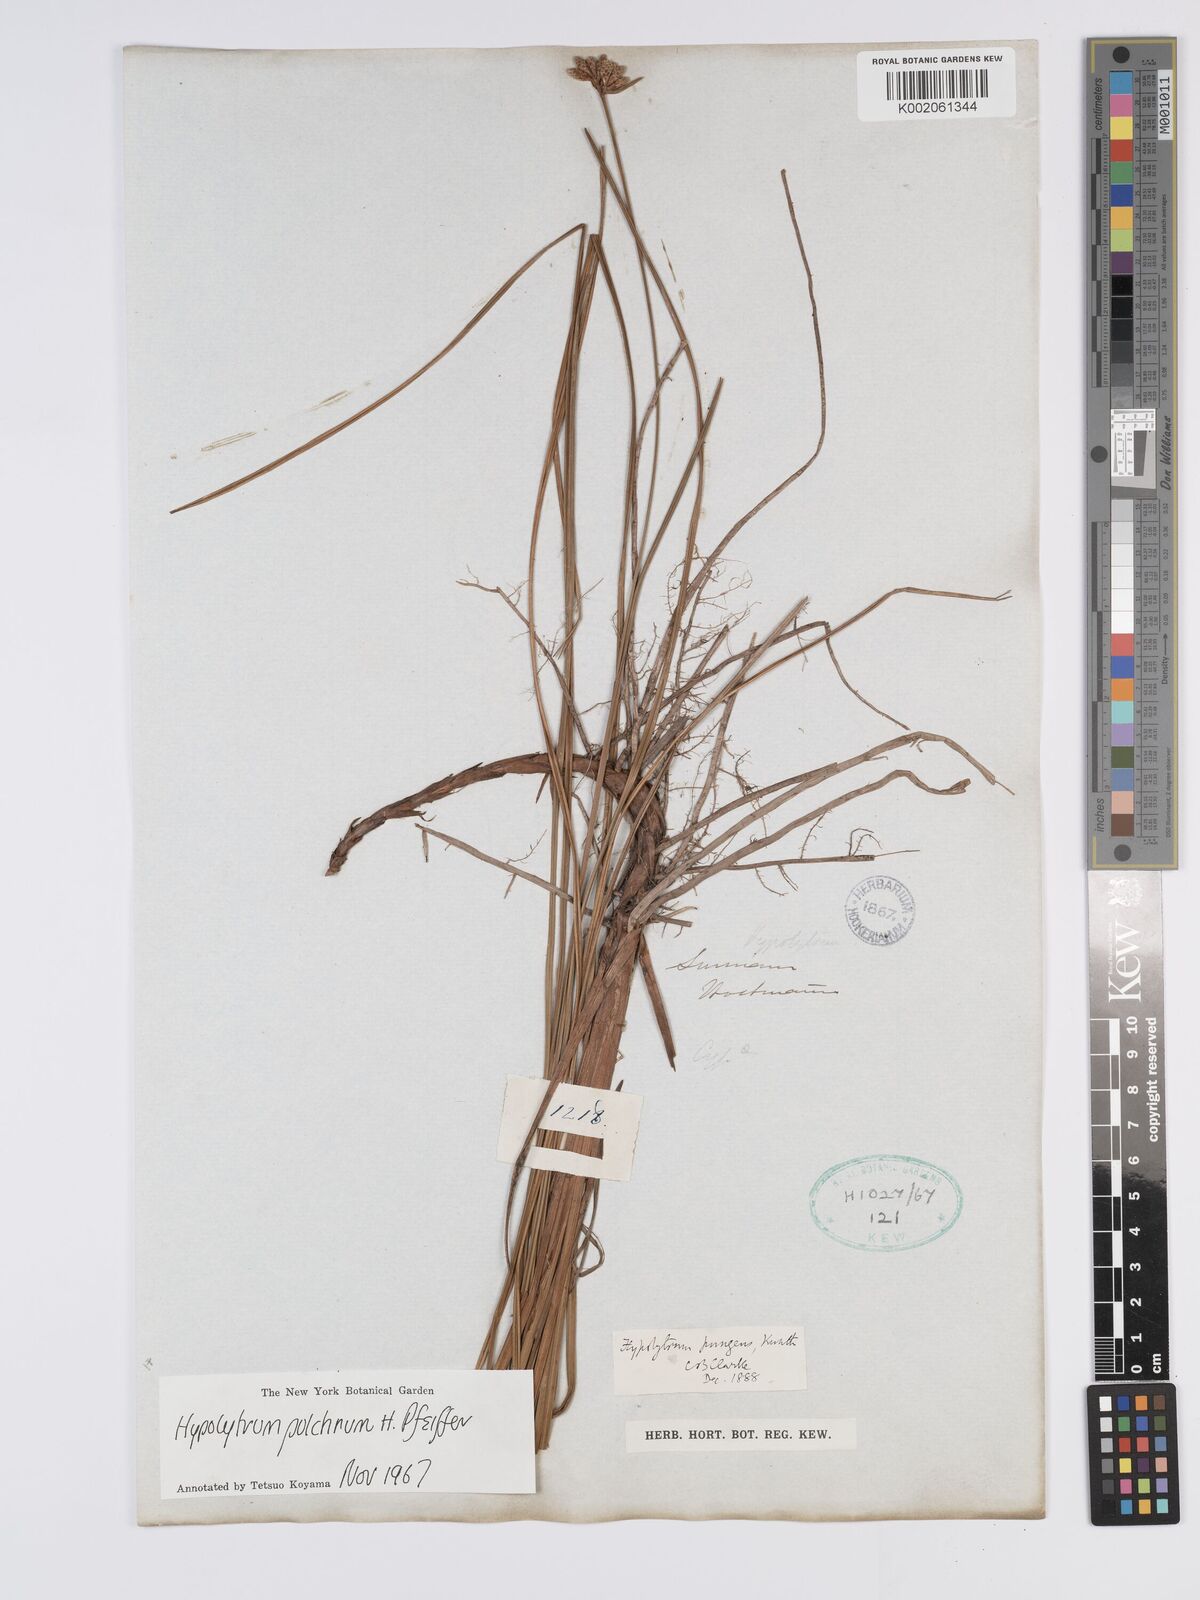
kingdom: Plantae
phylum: Tracheophyta
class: Liliopsida
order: Poales
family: Cyperaceae
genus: Hypolytrum
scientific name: Hypolytrum pulchrum
